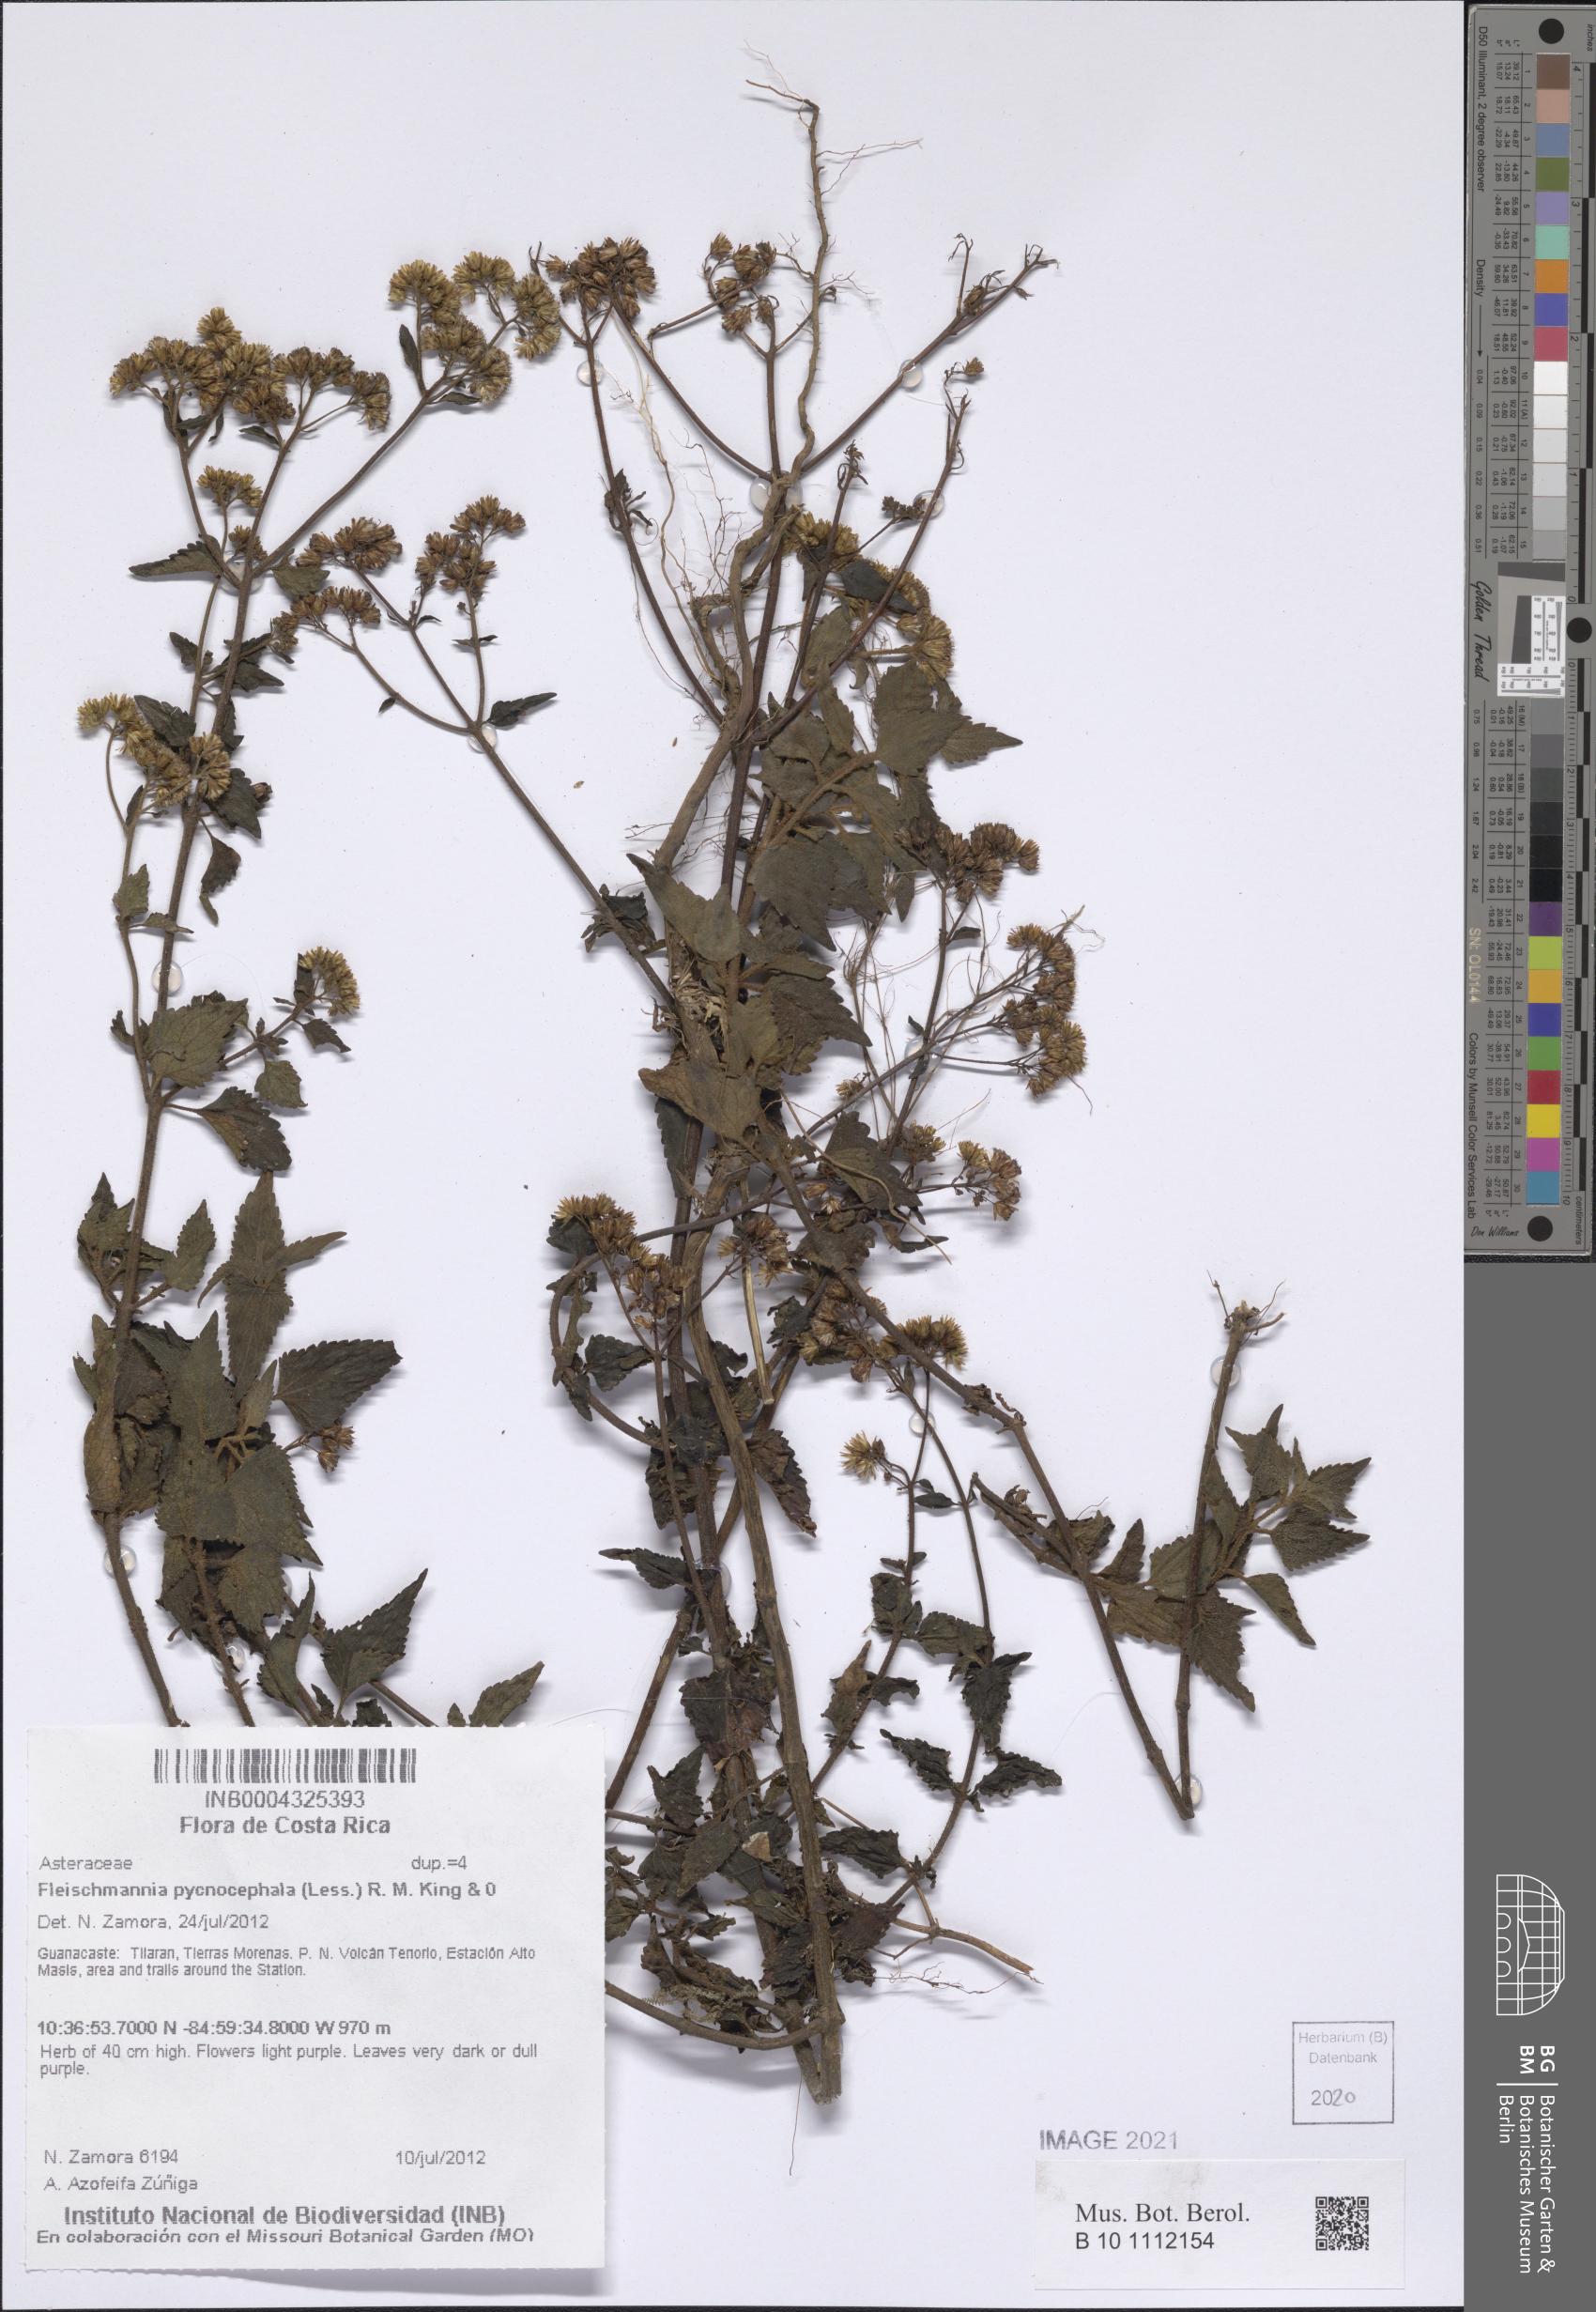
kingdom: Plantae
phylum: Tracheophyta
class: Magnoliopsida
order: Asterales
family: Asteraceae
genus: Fleischmannia
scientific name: Fleischmannia pycnocephala
